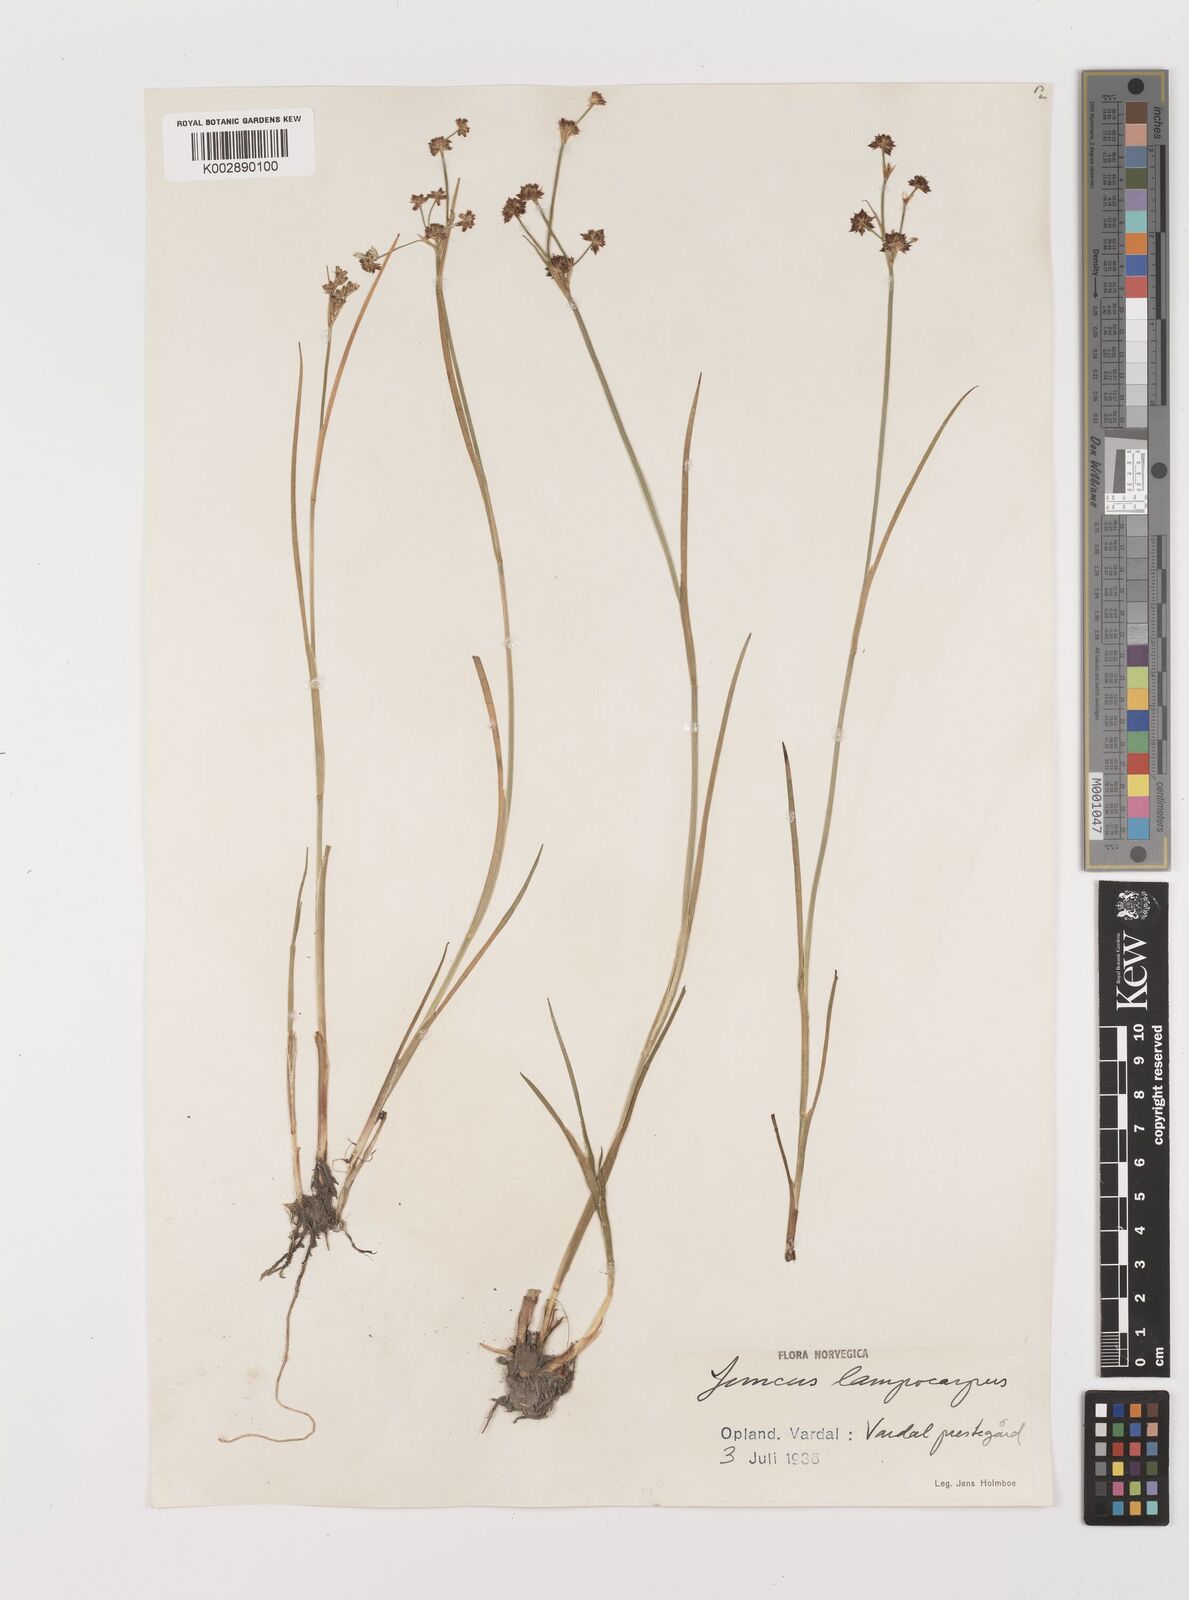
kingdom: Plantae
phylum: Tracheophyta
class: Liliopsida
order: Poales
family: Juncaceae
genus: Juncus
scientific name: Juncus articulatus
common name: Jointed rush
